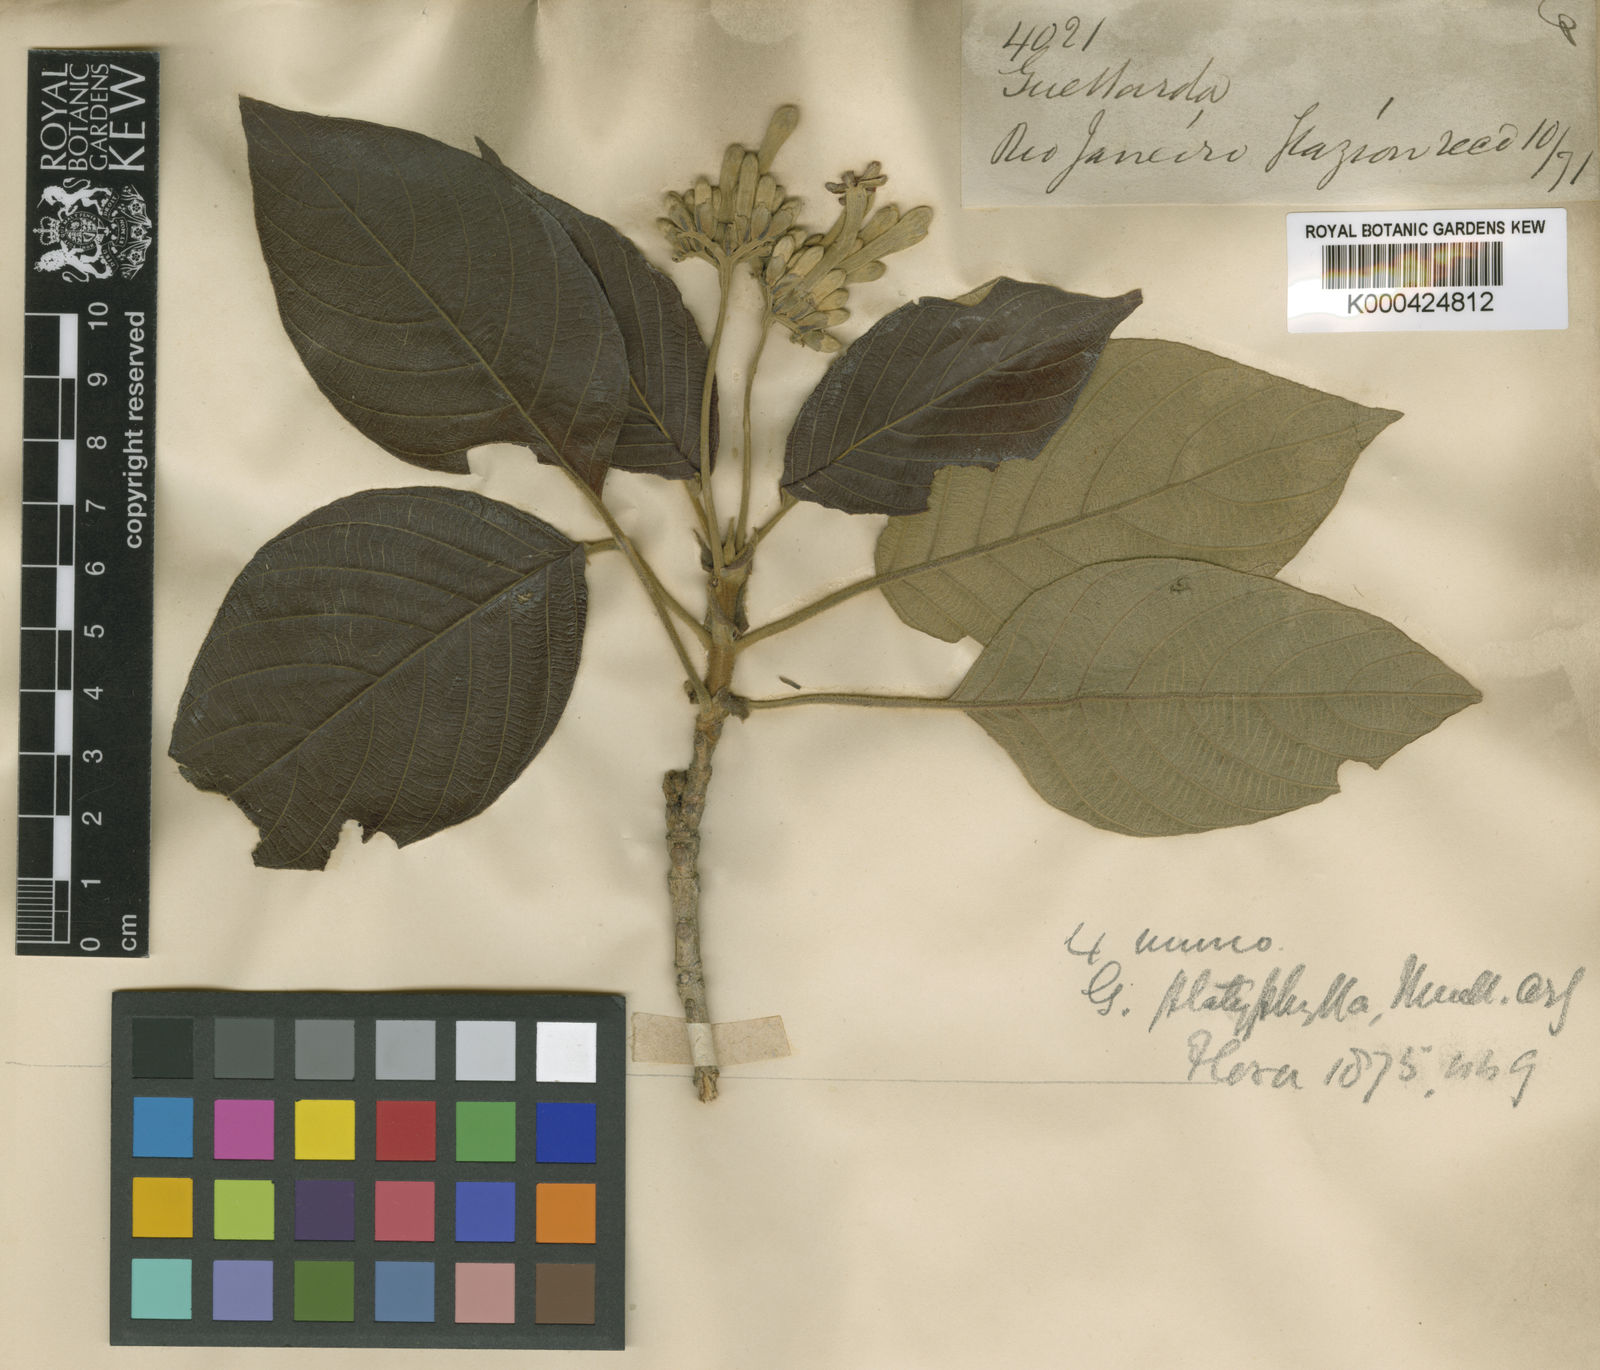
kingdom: Plantae
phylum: Tracheophyta
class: Magnoliopsida
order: Gentianales
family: Rubiaceae
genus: Guettarda
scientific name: Guettarda
